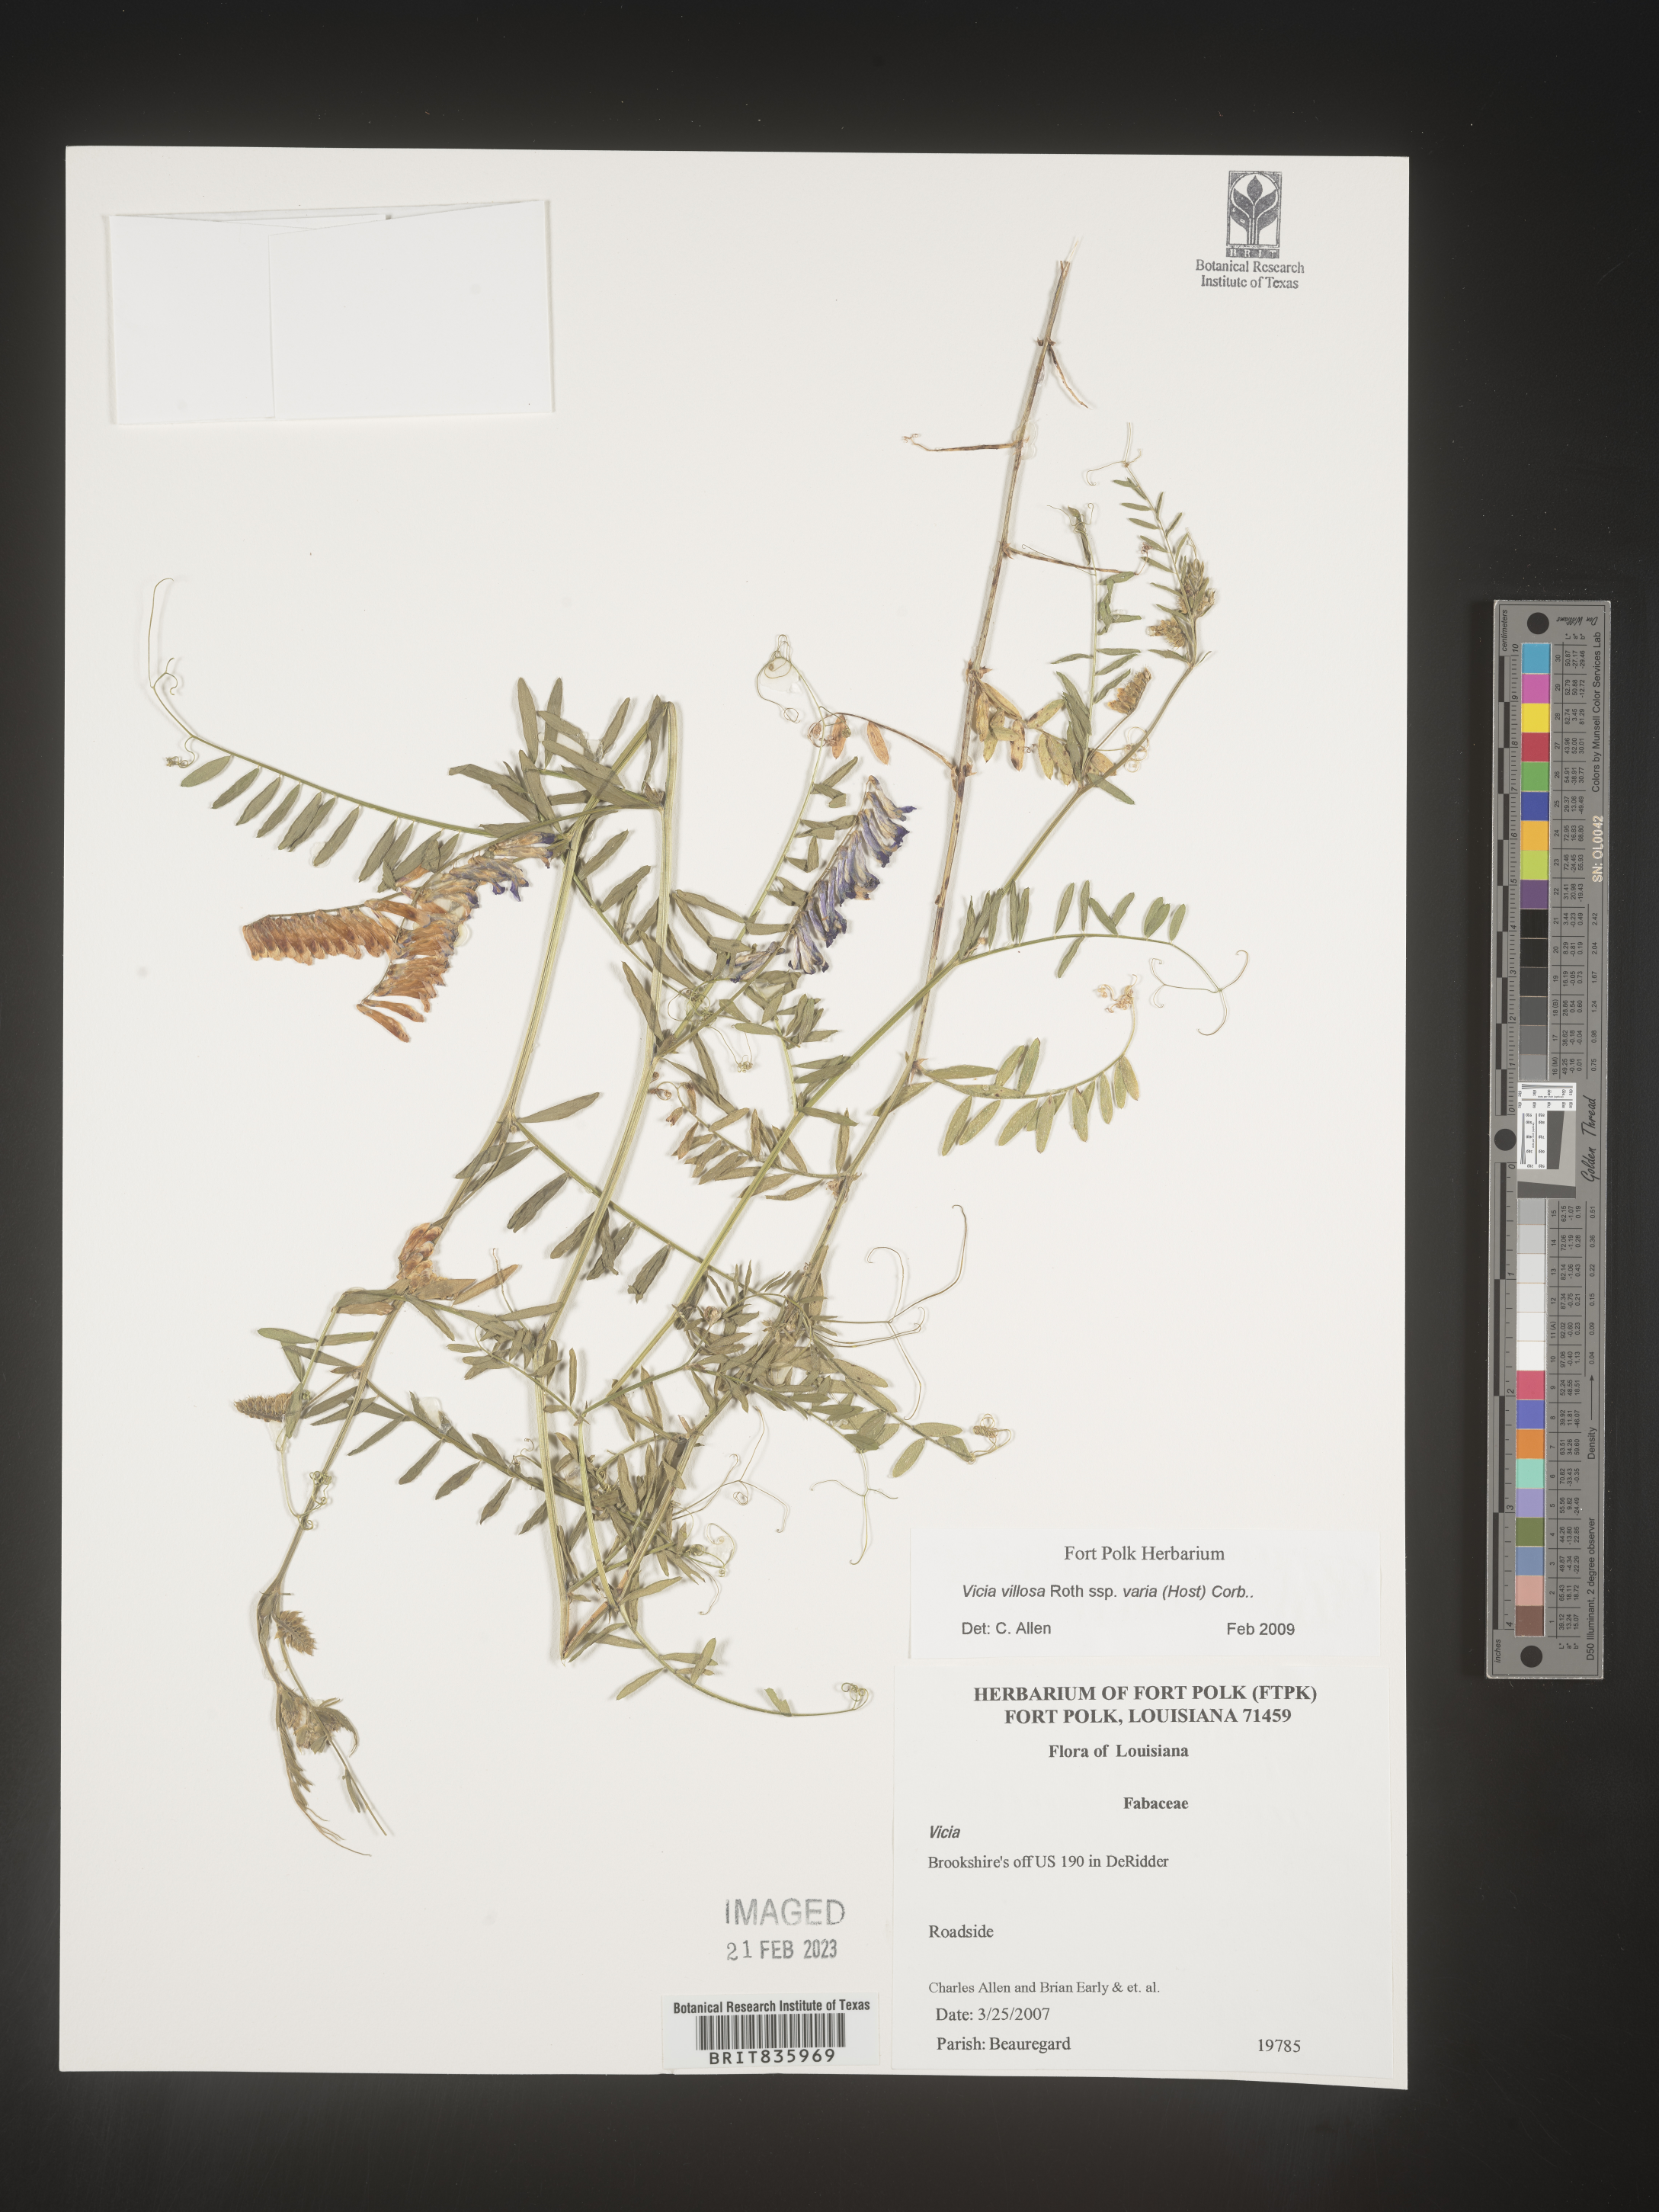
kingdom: Plantae
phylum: Tracheophyta
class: Magnoliopsida
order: Fabales
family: Fabaceae
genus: Vicia
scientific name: Vicia villosa
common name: Fodder vetch
